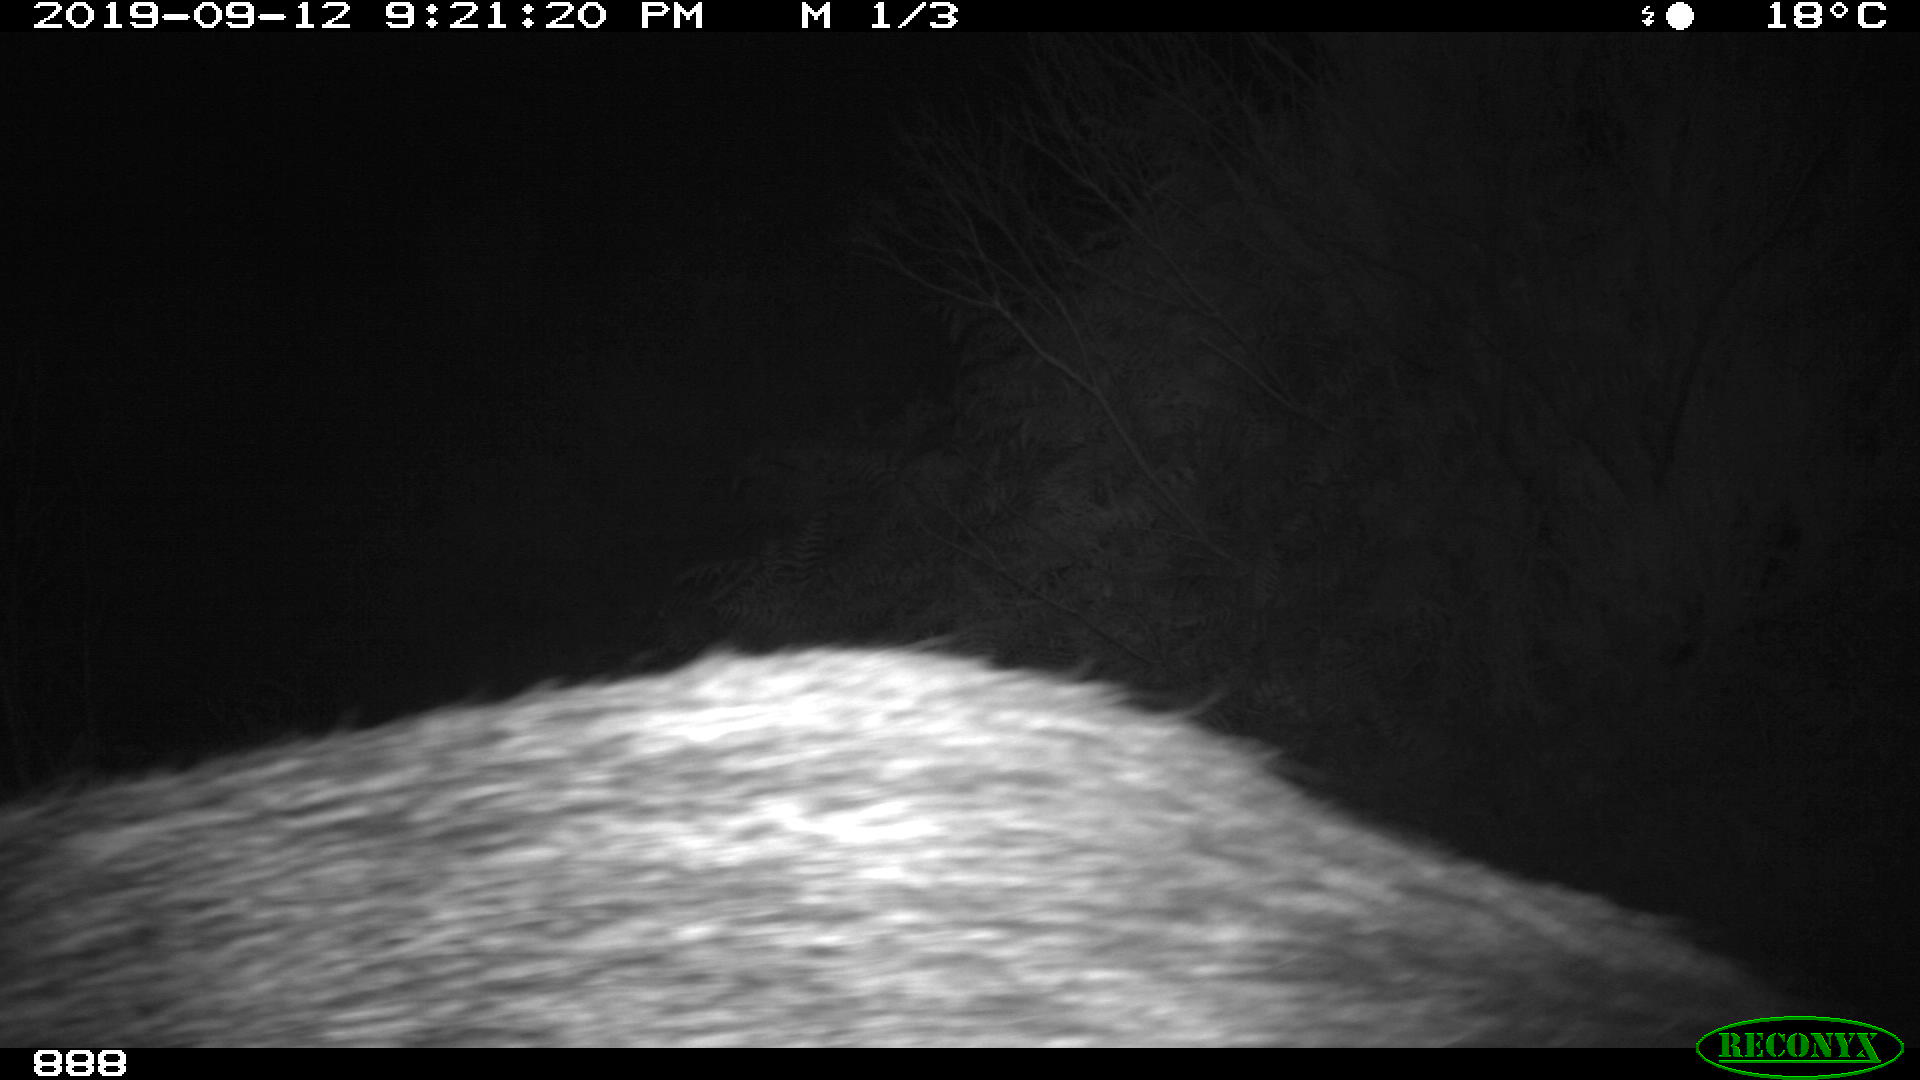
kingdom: Animalia
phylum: Chordata
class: Mammalia
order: Artiodactyla
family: Suidae
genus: Sus
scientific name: Sus scrofa
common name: Wild boar
